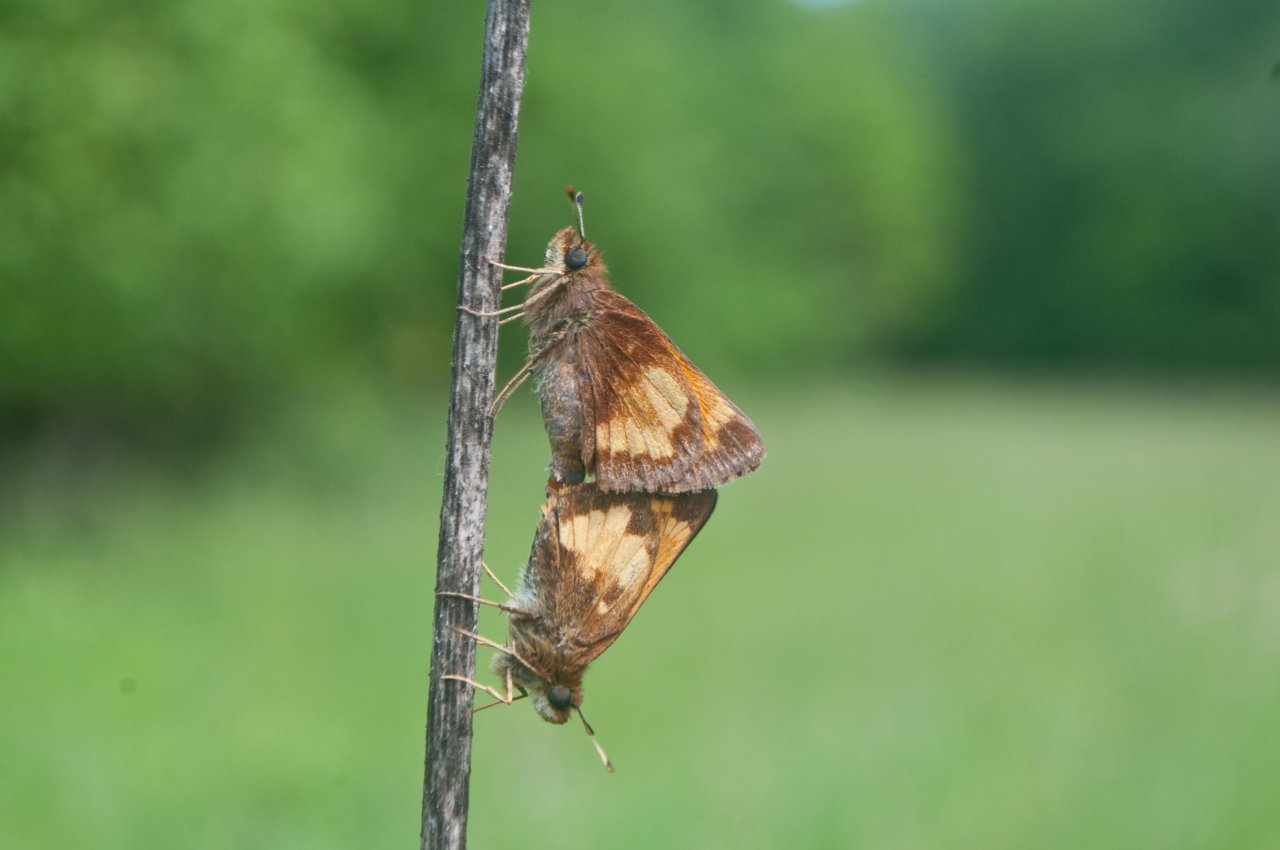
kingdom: Animalia
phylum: Arthropoda
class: Insecta
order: Lepidoptera
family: Hesperiidae
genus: Lon
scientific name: Lon hobomok
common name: Hobomok Skipper
